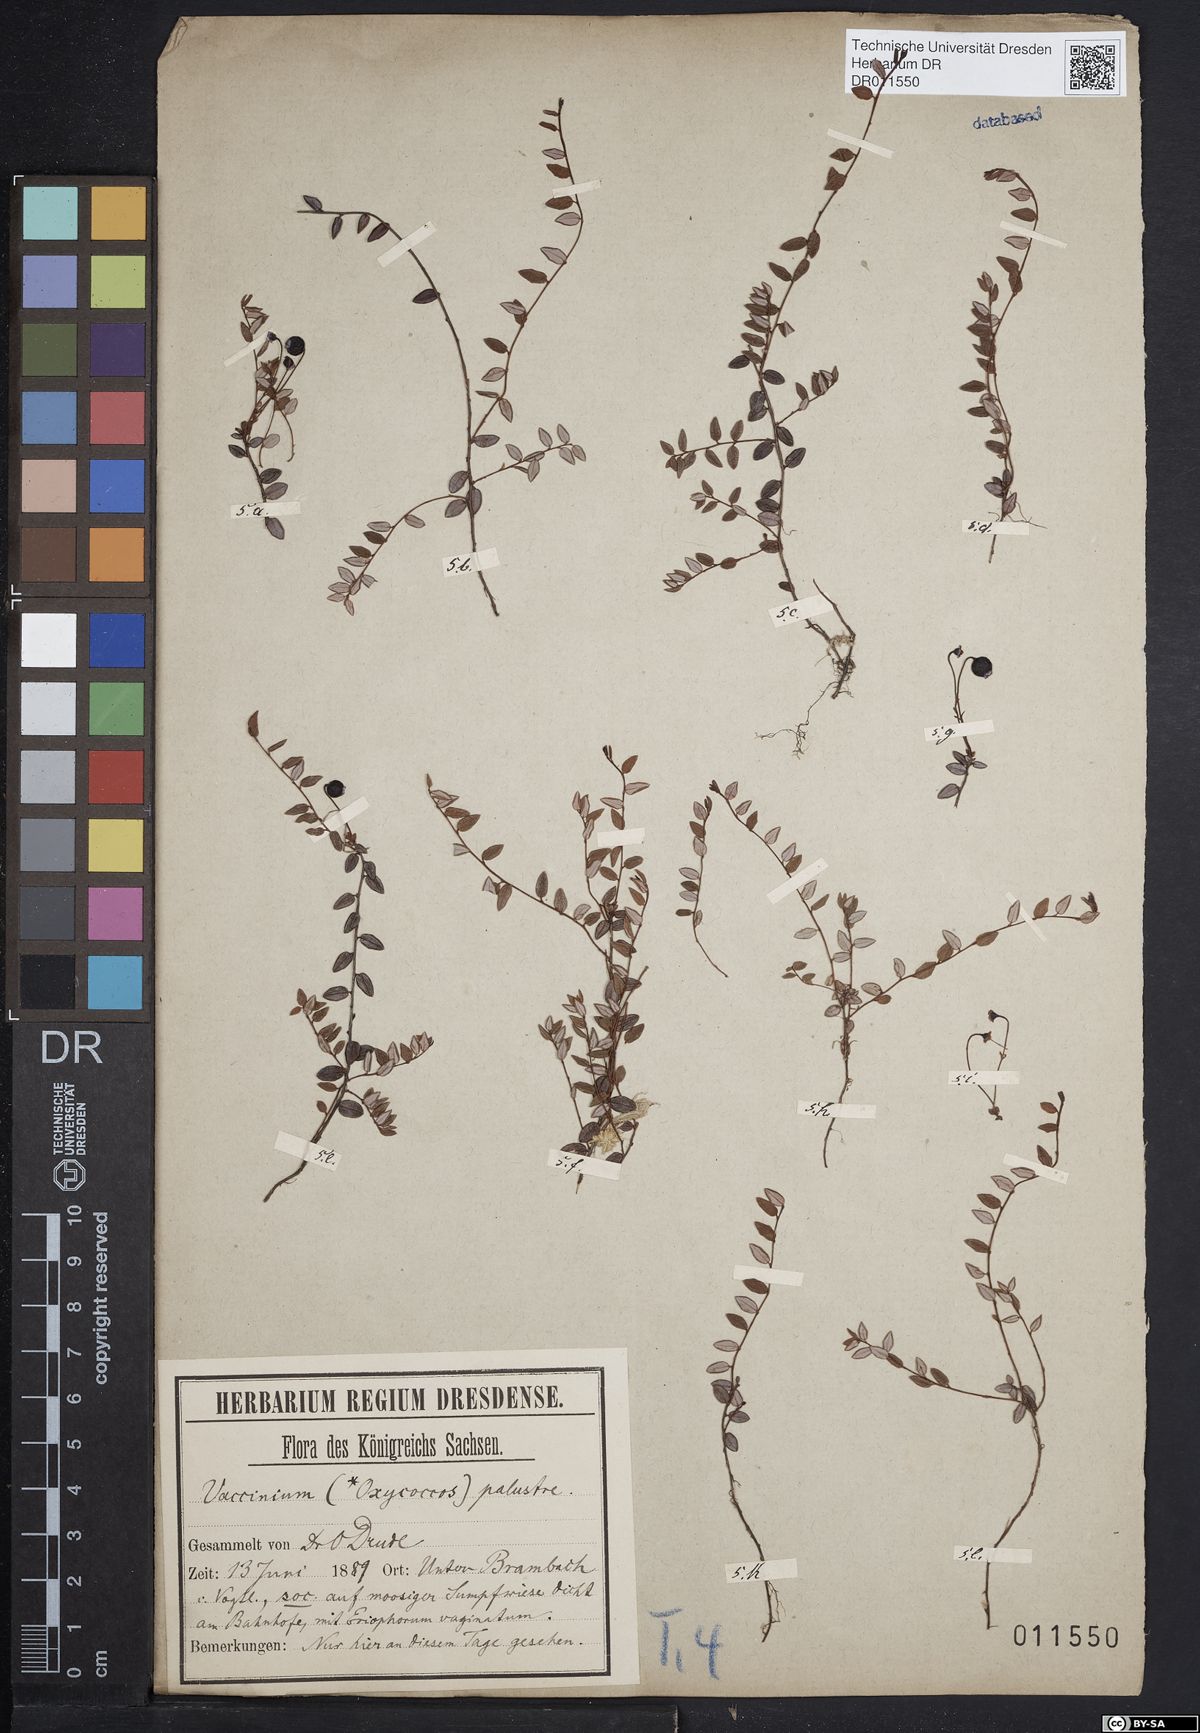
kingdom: Plantae
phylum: Tracheophyta
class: Magnoliopsida
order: Ericales
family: Ericaceae
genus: Vaccinium
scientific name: Vaccinium oxycoccos
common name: Cranberry
